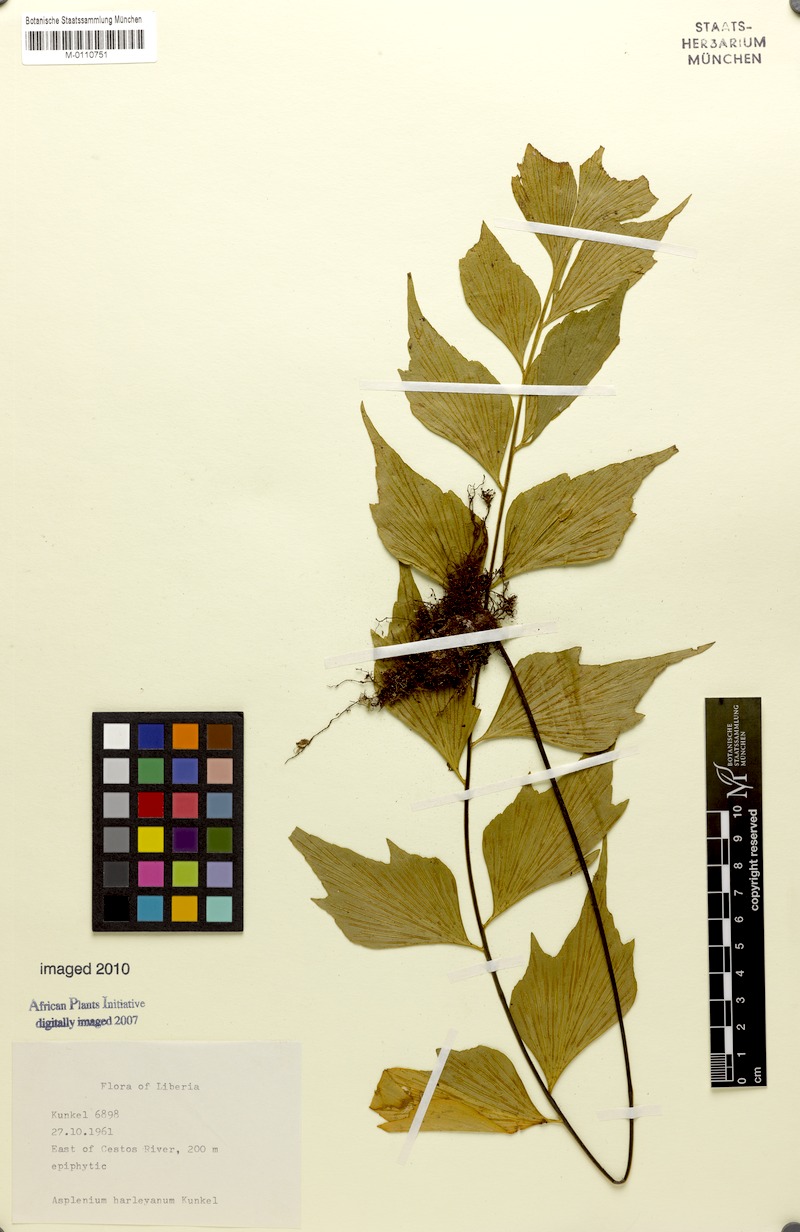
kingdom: Plantae
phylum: Tracheophyta
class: Polypodiopsida
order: Polypodiales
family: Aspleniaceae
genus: Asplenium
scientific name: Asplenium harleyanum
